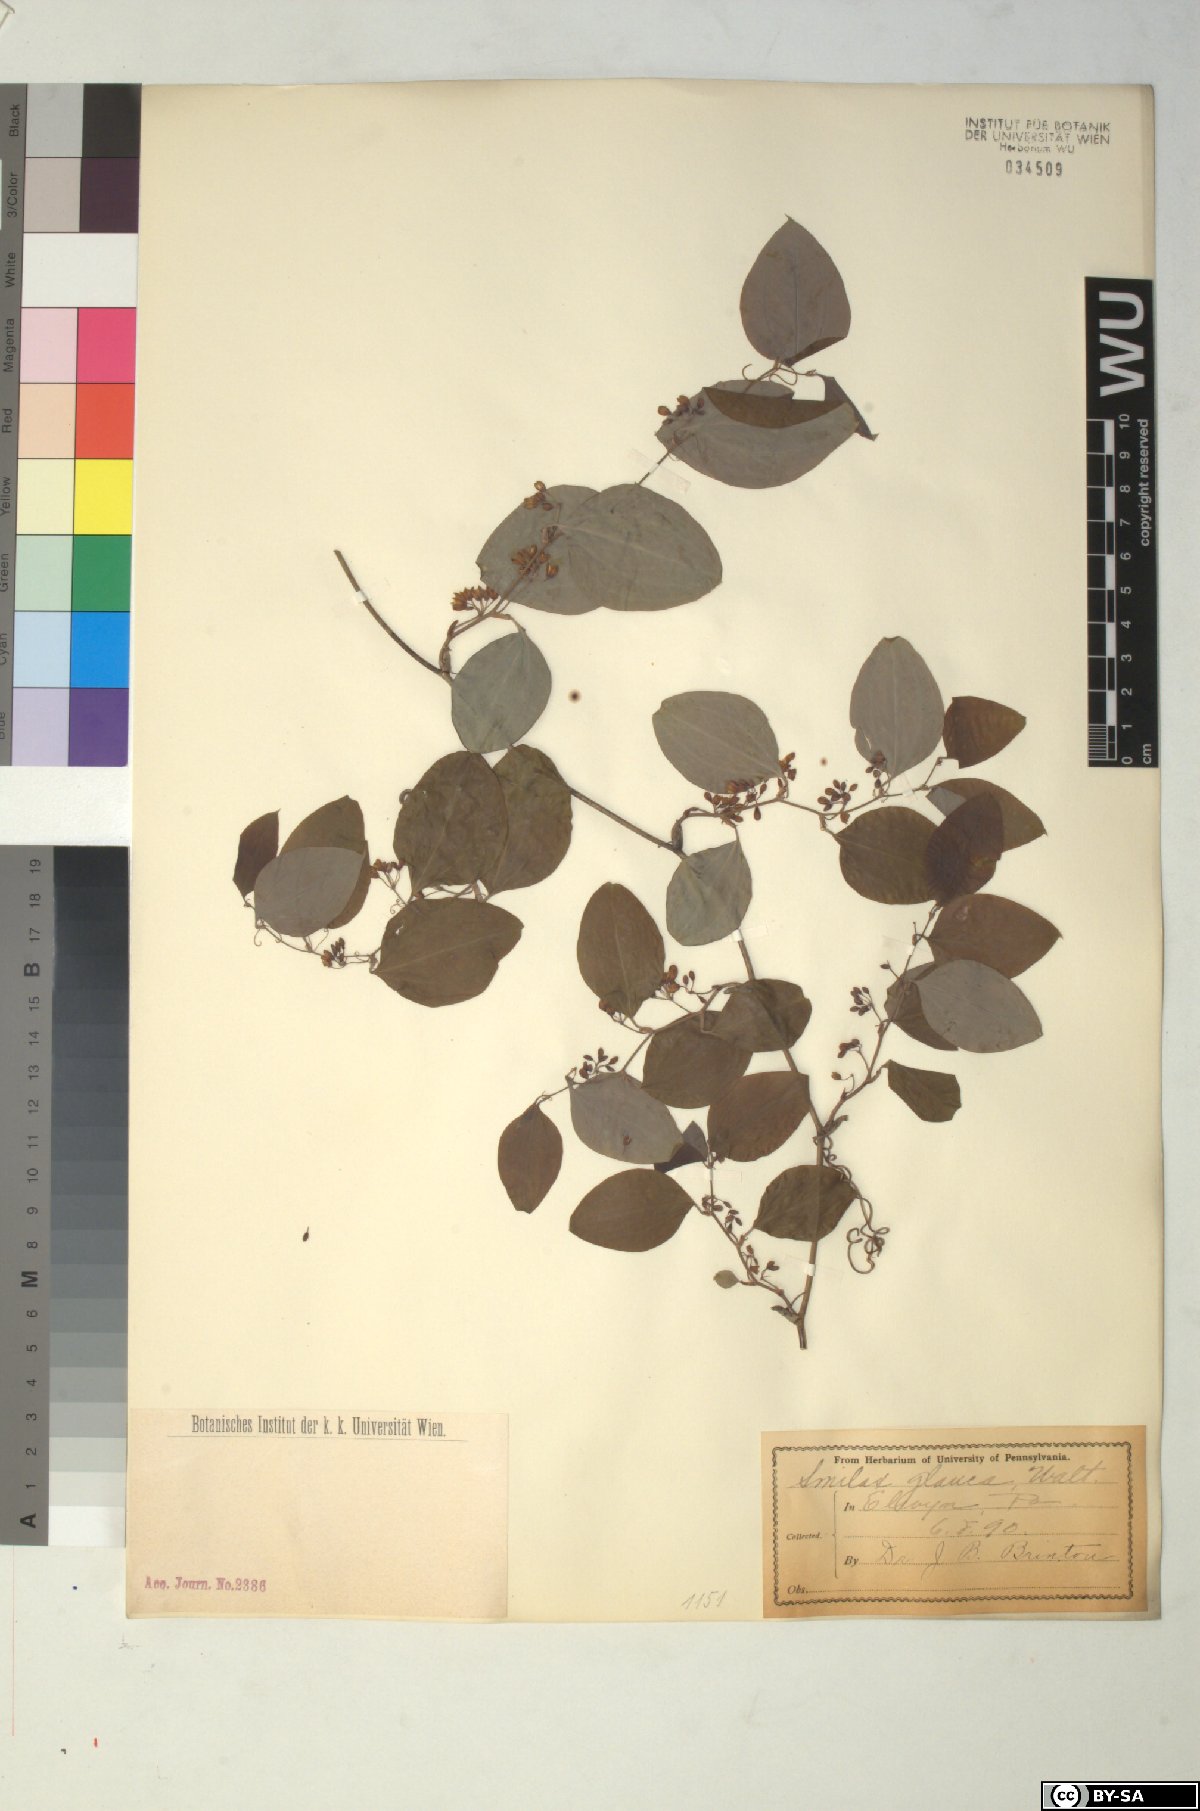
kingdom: Plantae
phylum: Tracheophyta
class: Liliopsida
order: Liliales
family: Smilacaceae
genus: Smilax
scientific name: Smilax glauca
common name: Cat greenbrier
